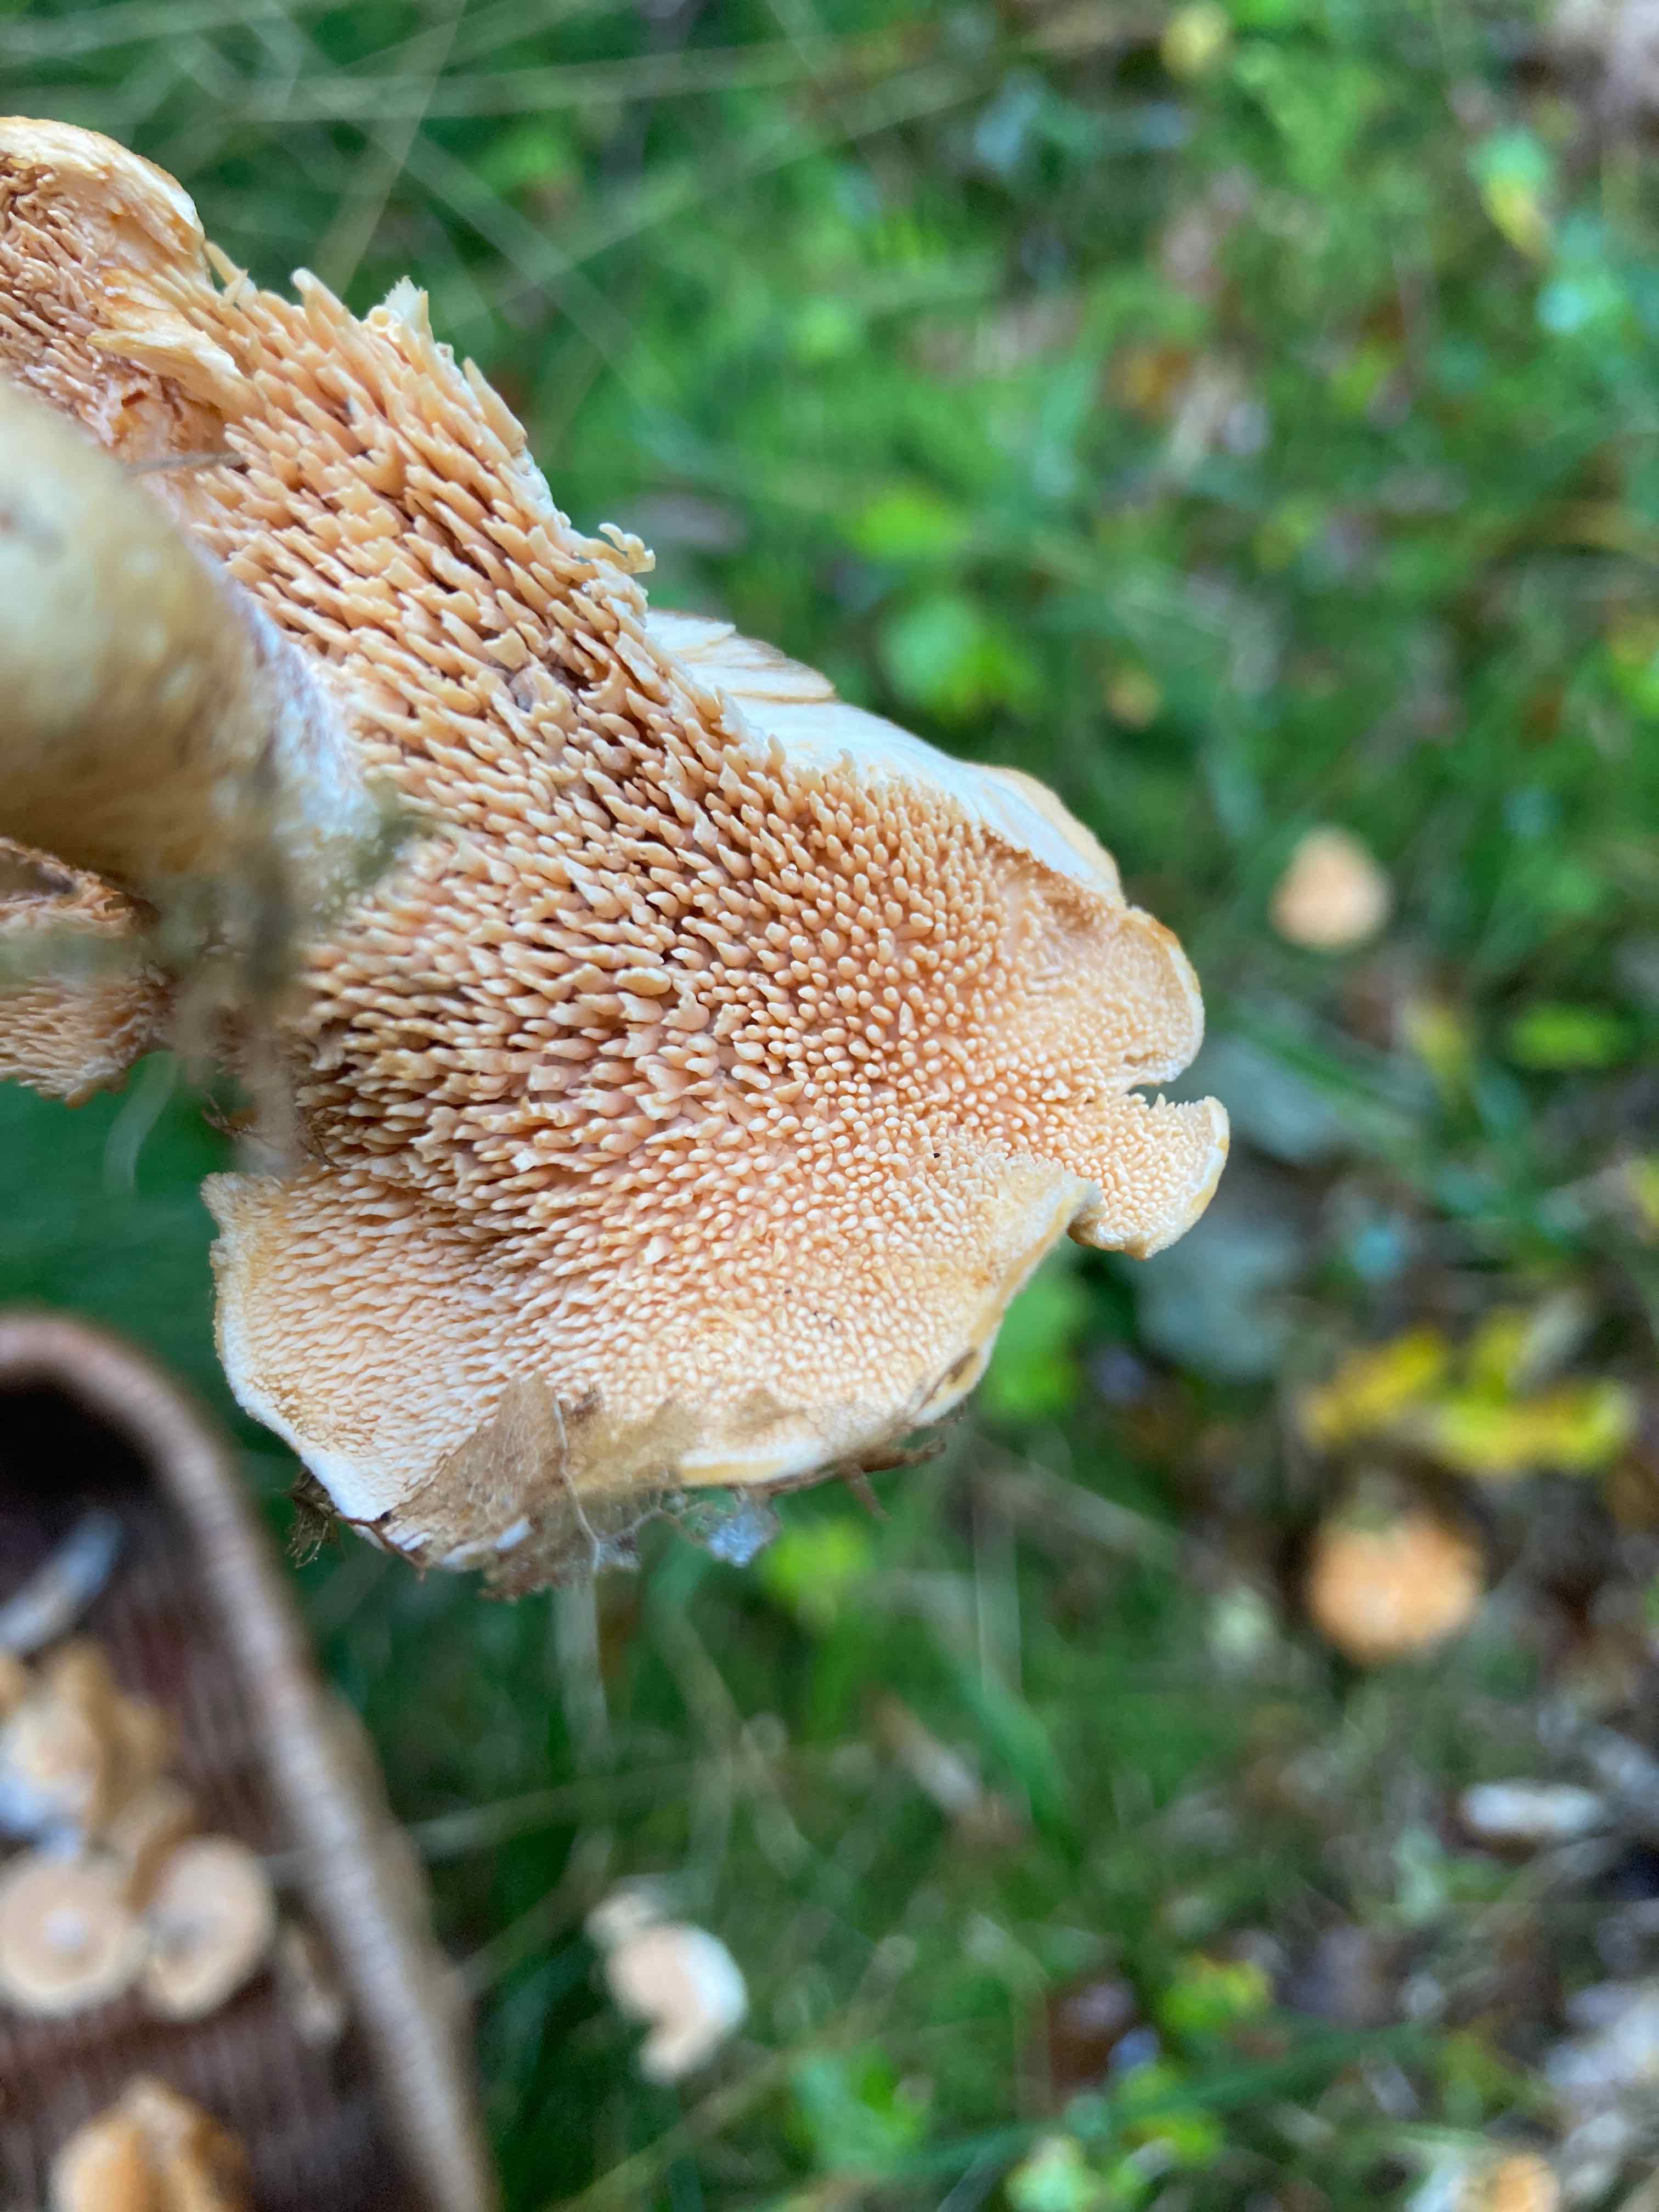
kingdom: Fungi
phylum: Basidiomycota
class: Agaricomycetes
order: Cantharellales
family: Hydnaceae
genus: Hydnum
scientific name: Hydnum ellipsosporum
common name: tandet pigsvamp
